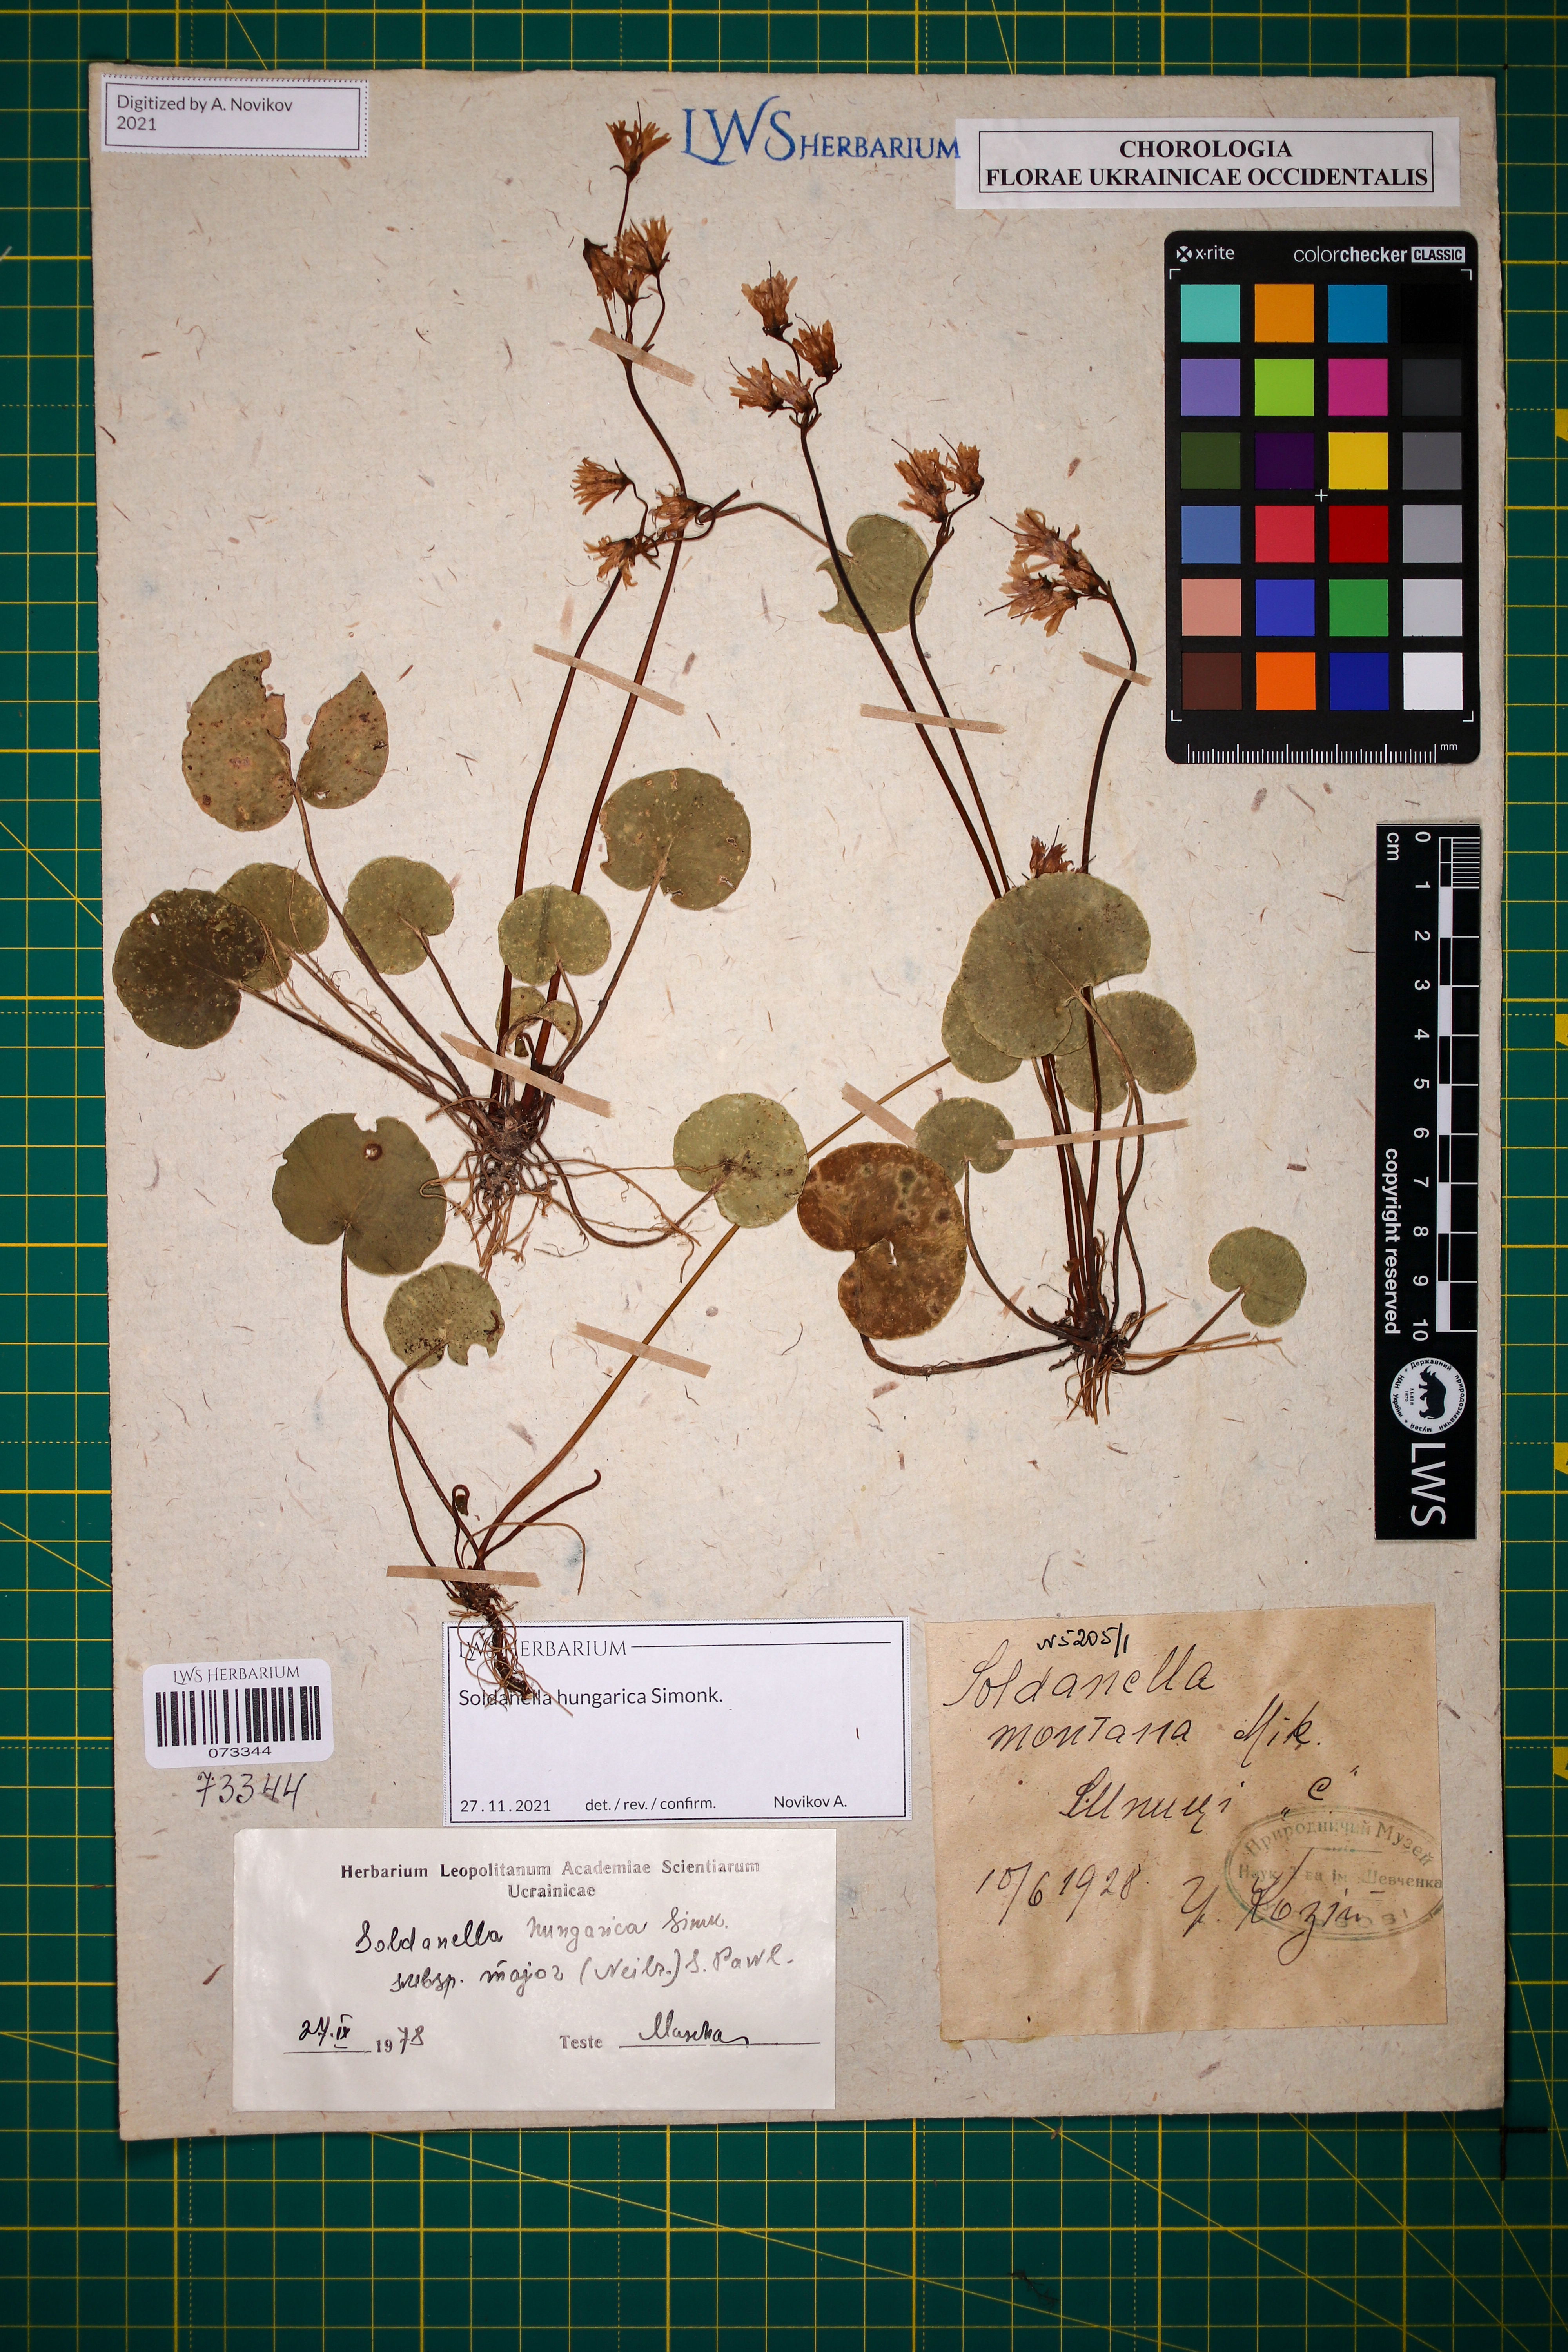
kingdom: Plantae
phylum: Tracheophyta
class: Magnoliopsida
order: Ericales
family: Primulaceae
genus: Soldanella
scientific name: Soldanella hungarica
